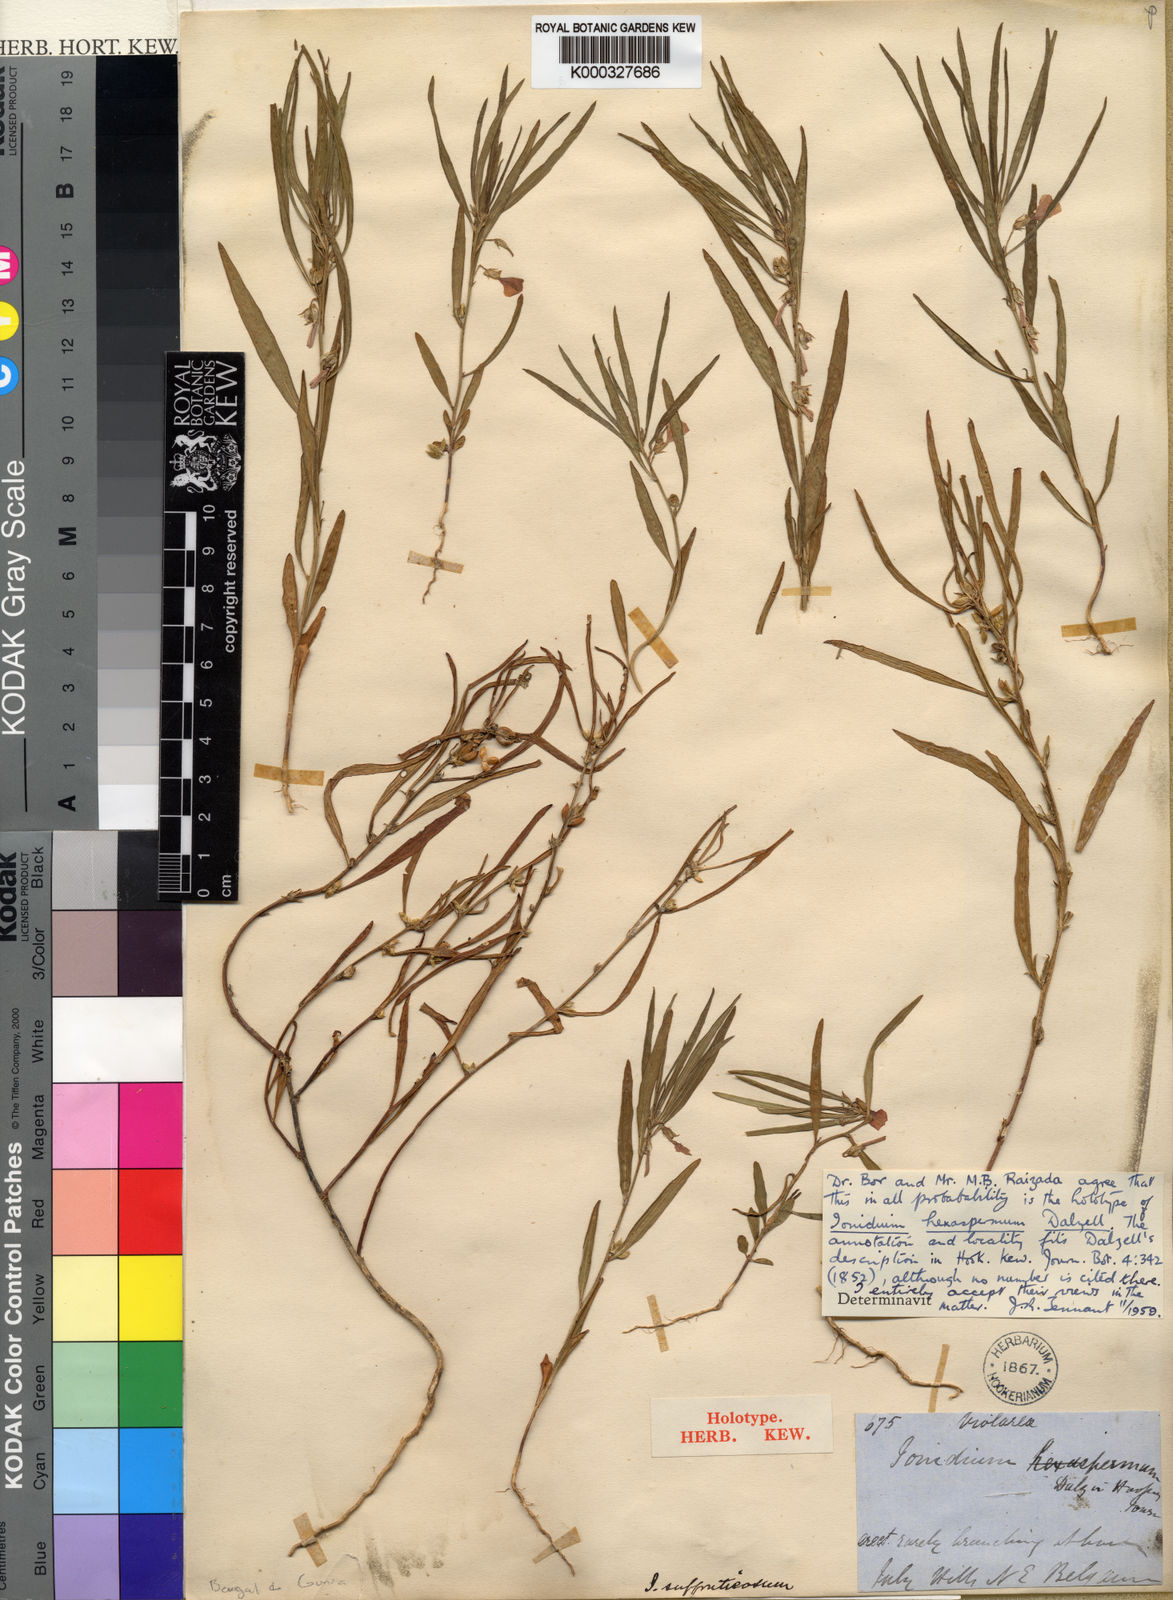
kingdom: Plantae
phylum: Tracheophyta
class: Magnoliopsida
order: Malpighiales
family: Violaceae
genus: Hybanthus
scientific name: Hybanthus
